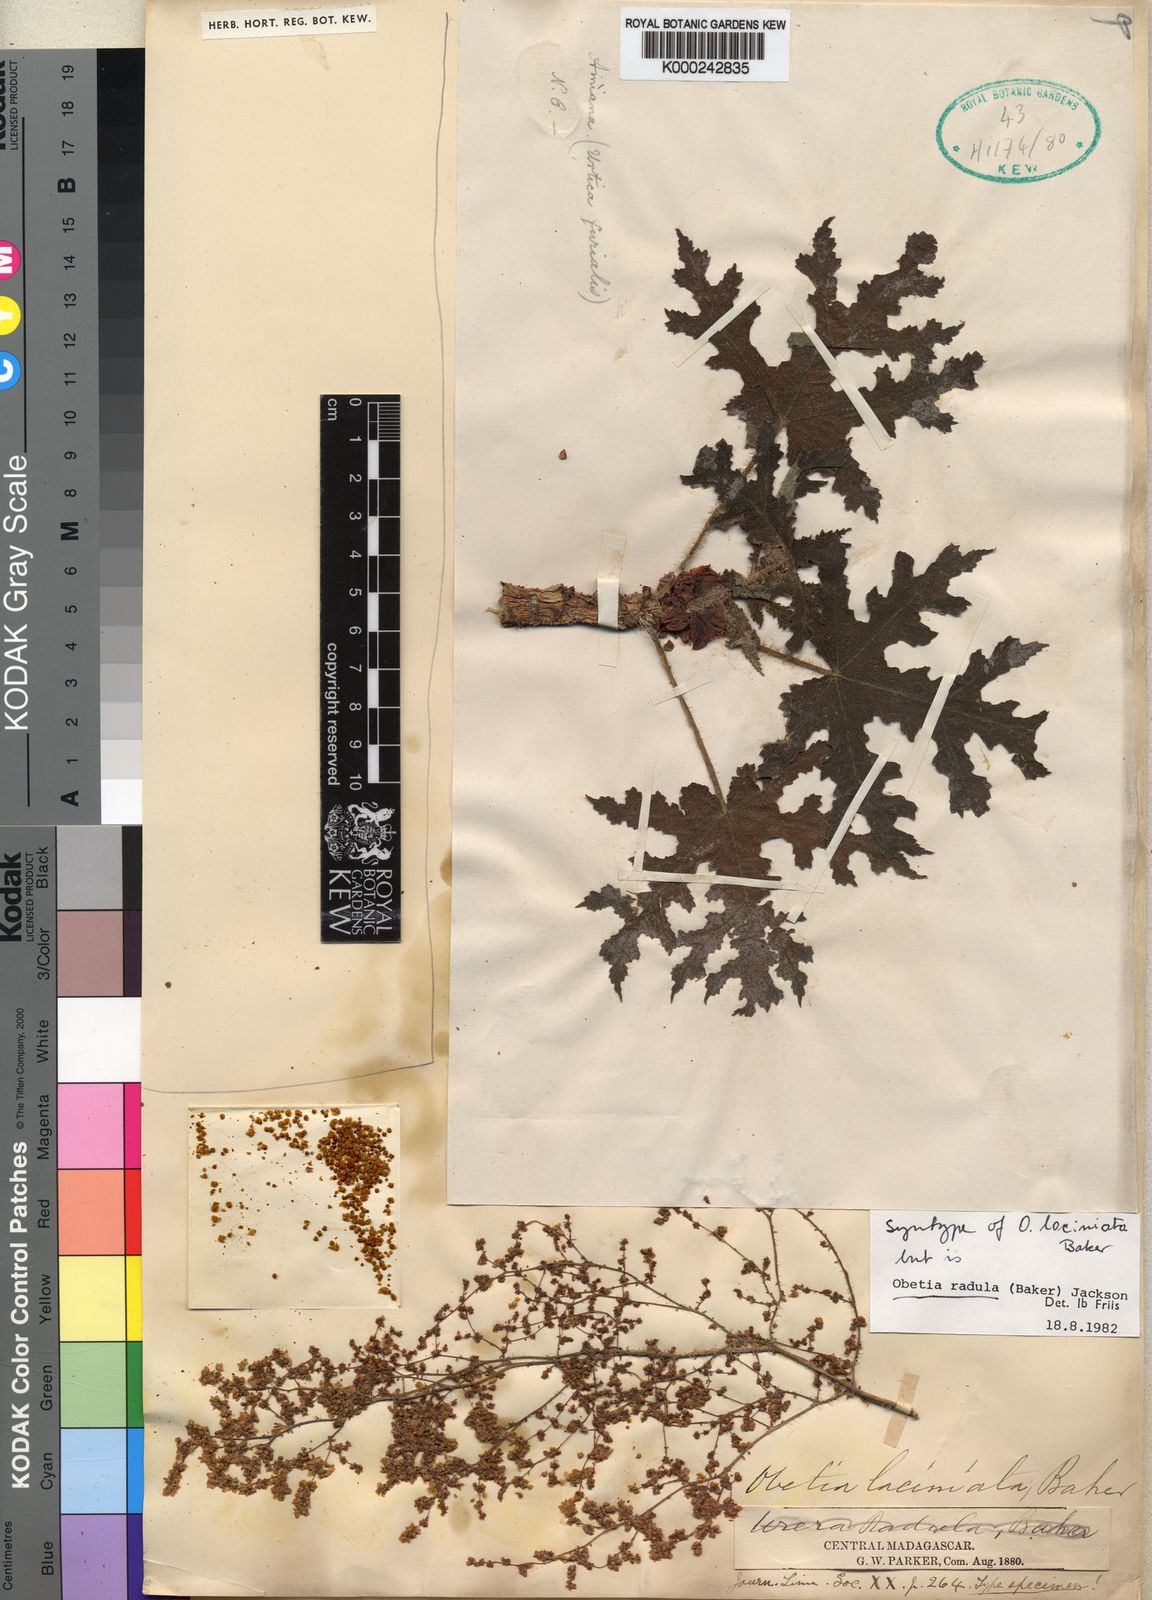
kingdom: Plantae
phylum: Tracheophyta
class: Magnoliopsida
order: Rosales
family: Urticaceae
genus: Obetia
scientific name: Obetia radula
